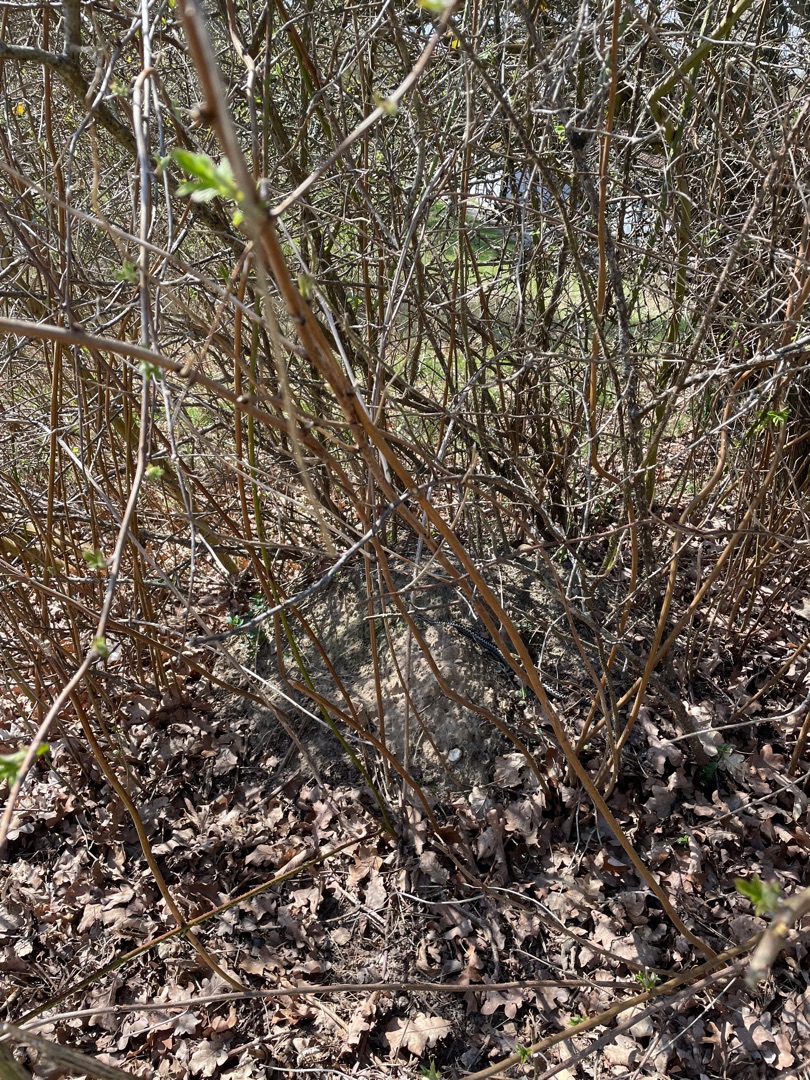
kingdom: Animalia
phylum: Chordata
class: Squamata
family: Viperidae
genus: Vipera
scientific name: Vipera berus
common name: Hugorm
